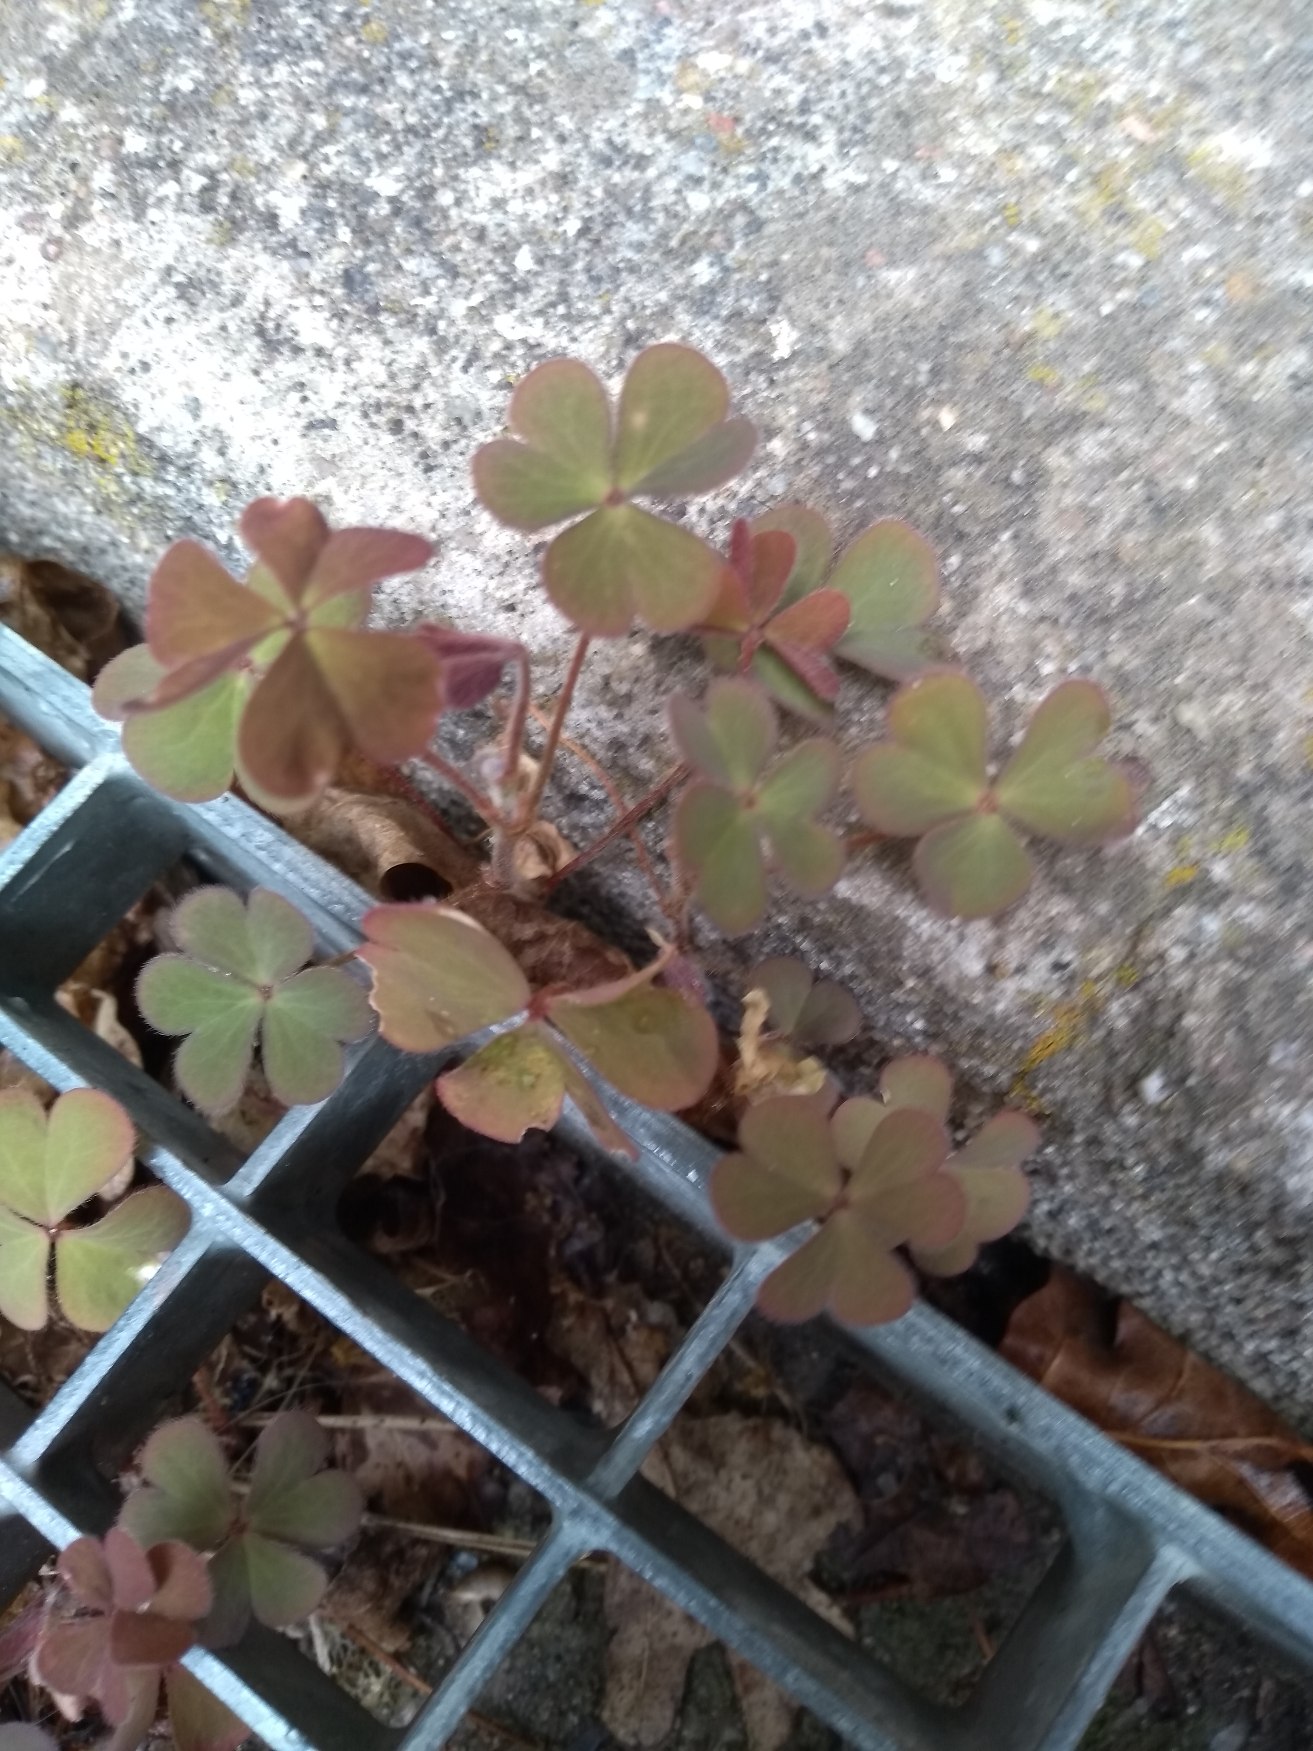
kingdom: Plantae
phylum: Tracheophyta
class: Magnoliopsida
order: Oxalidales
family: Oxalidaceae
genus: Oxalis
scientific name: Oxalis corniculata
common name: Nedliggende surkløver
